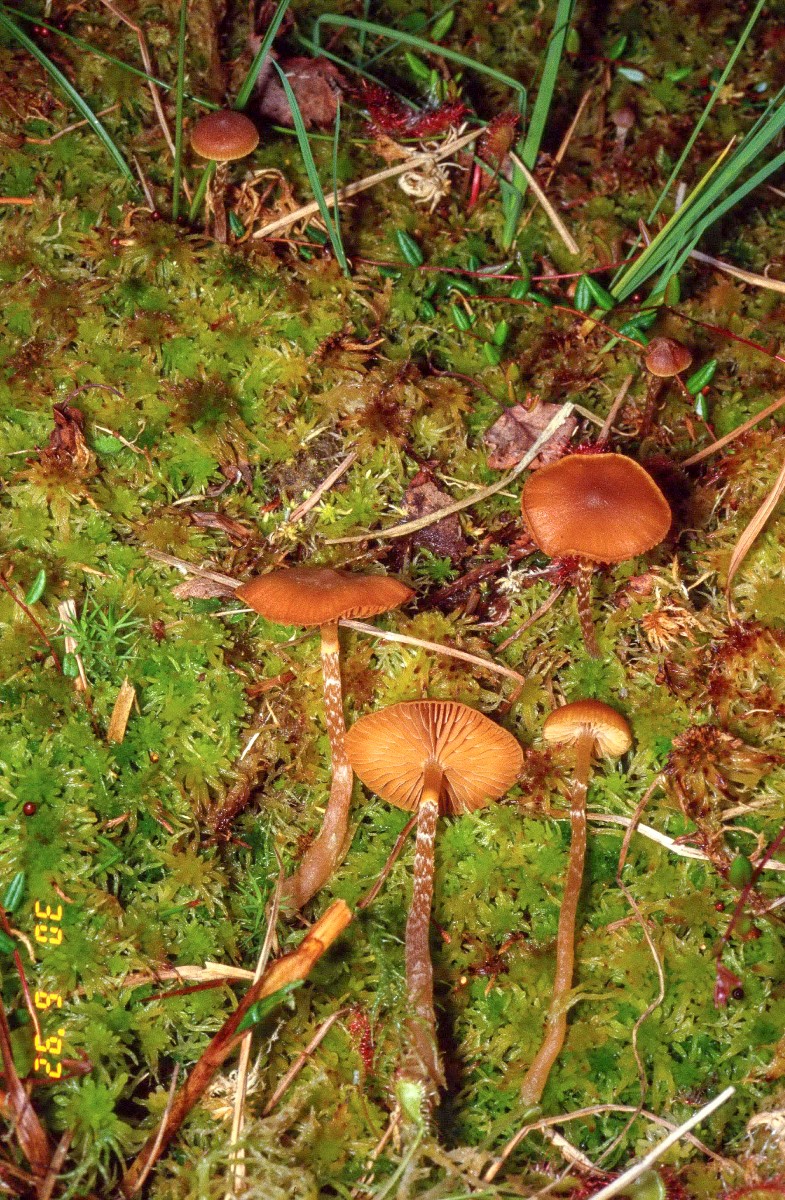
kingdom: Fungi
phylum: Basidiomycota
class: Agaricomycetes
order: Agaricales
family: Hymenogastraceae
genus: Galerina
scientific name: Galerina paludosa
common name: mose-hjelmhat
